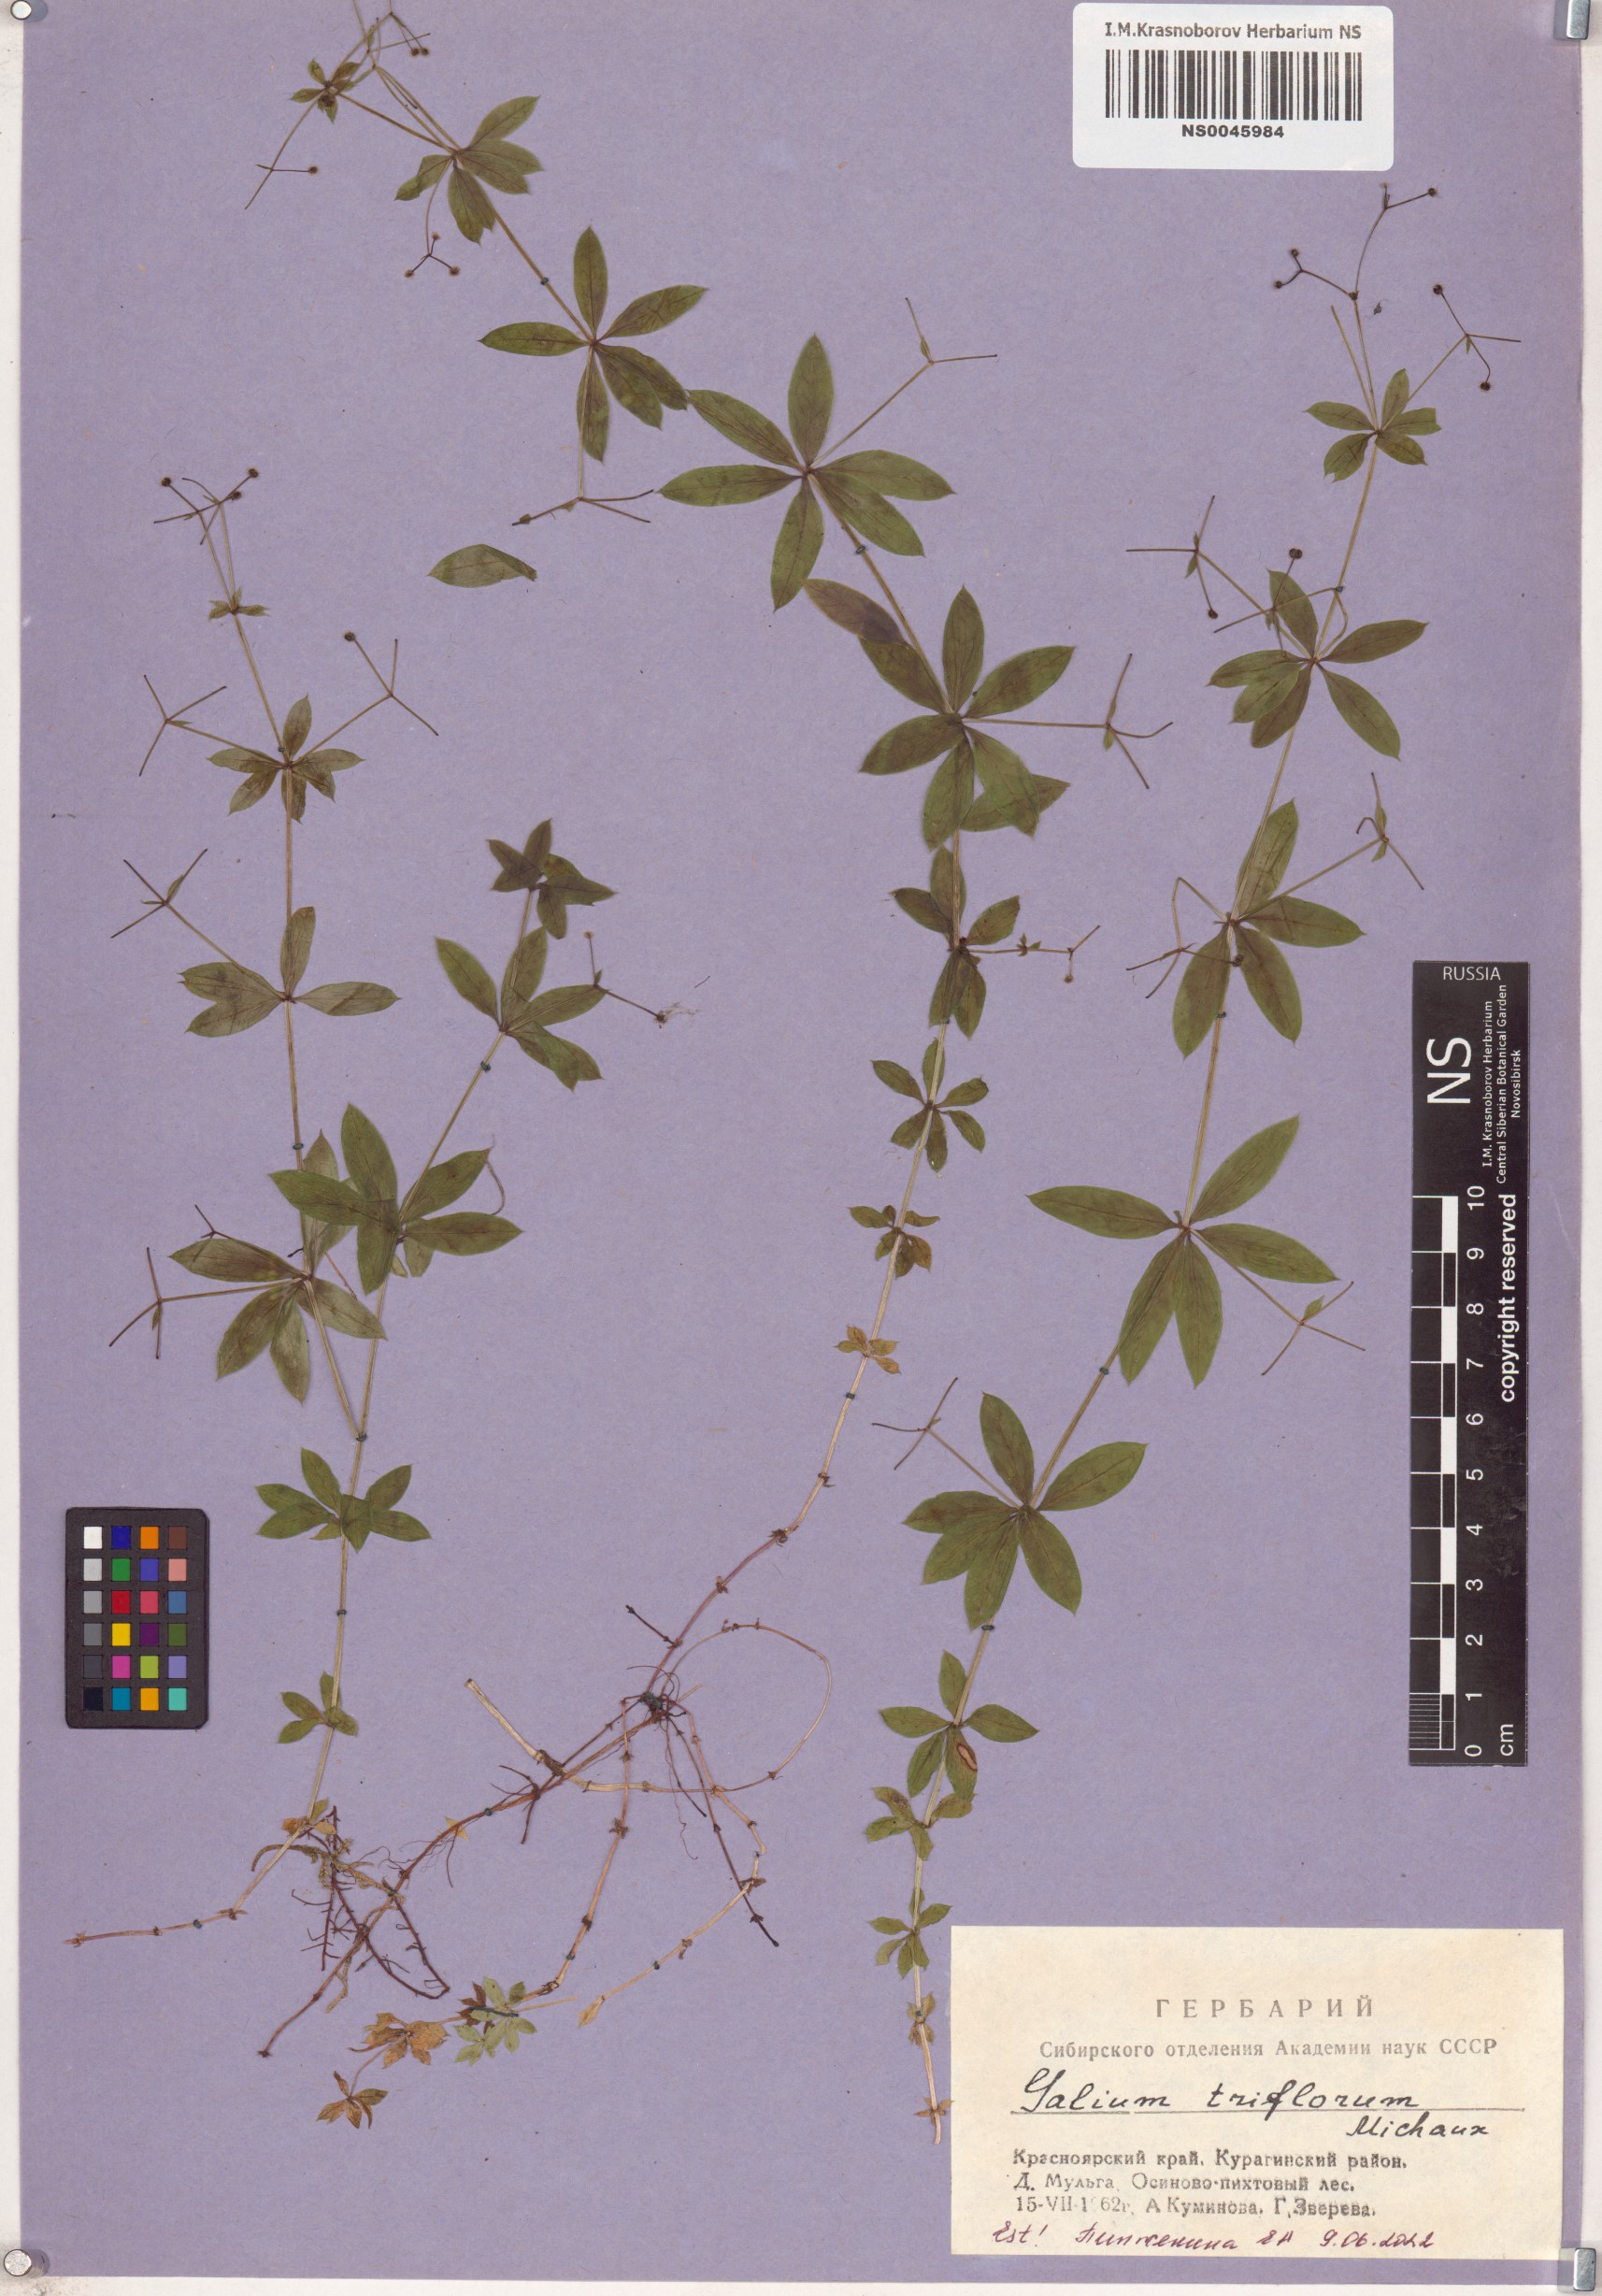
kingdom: Plantae
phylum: Tracheophyta
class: Magnoliopsida
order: Gentianales
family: Rubiaceae
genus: Galium
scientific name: Galium triflorum
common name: Fragrant bedstraw
